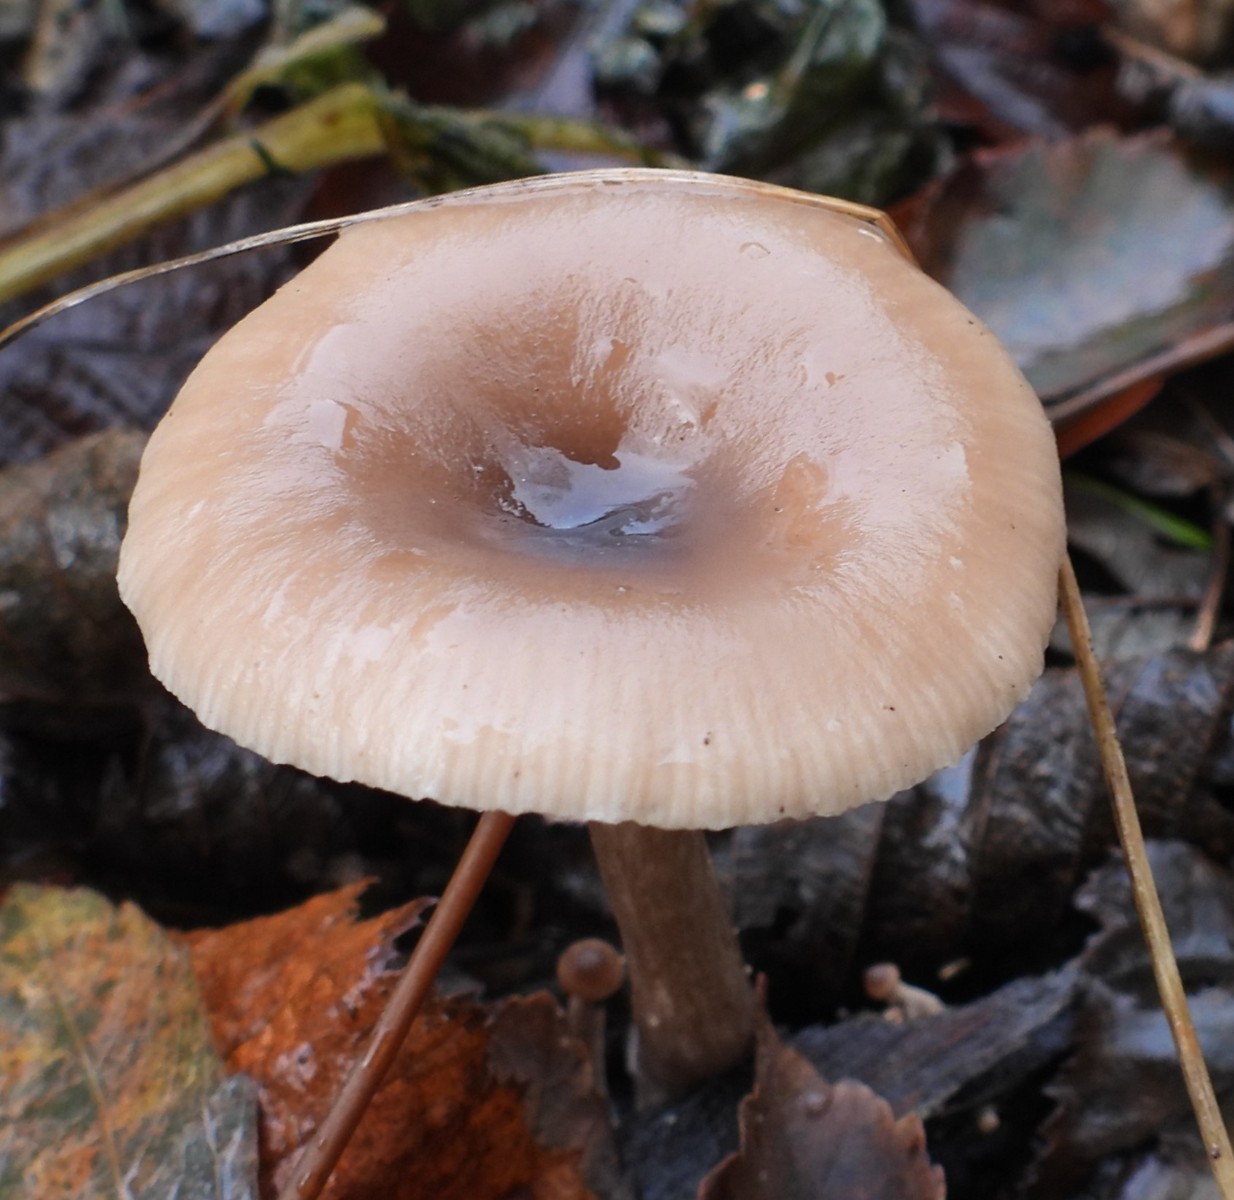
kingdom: Fungi
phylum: Basidiomycota
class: Agaricomycetes
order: Agaricales
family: Pseudoclitocybaceae
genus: Pseudoclitocybe
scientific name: Pseudoclitocybe cyathiformis
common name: almindelig bægertragthat
